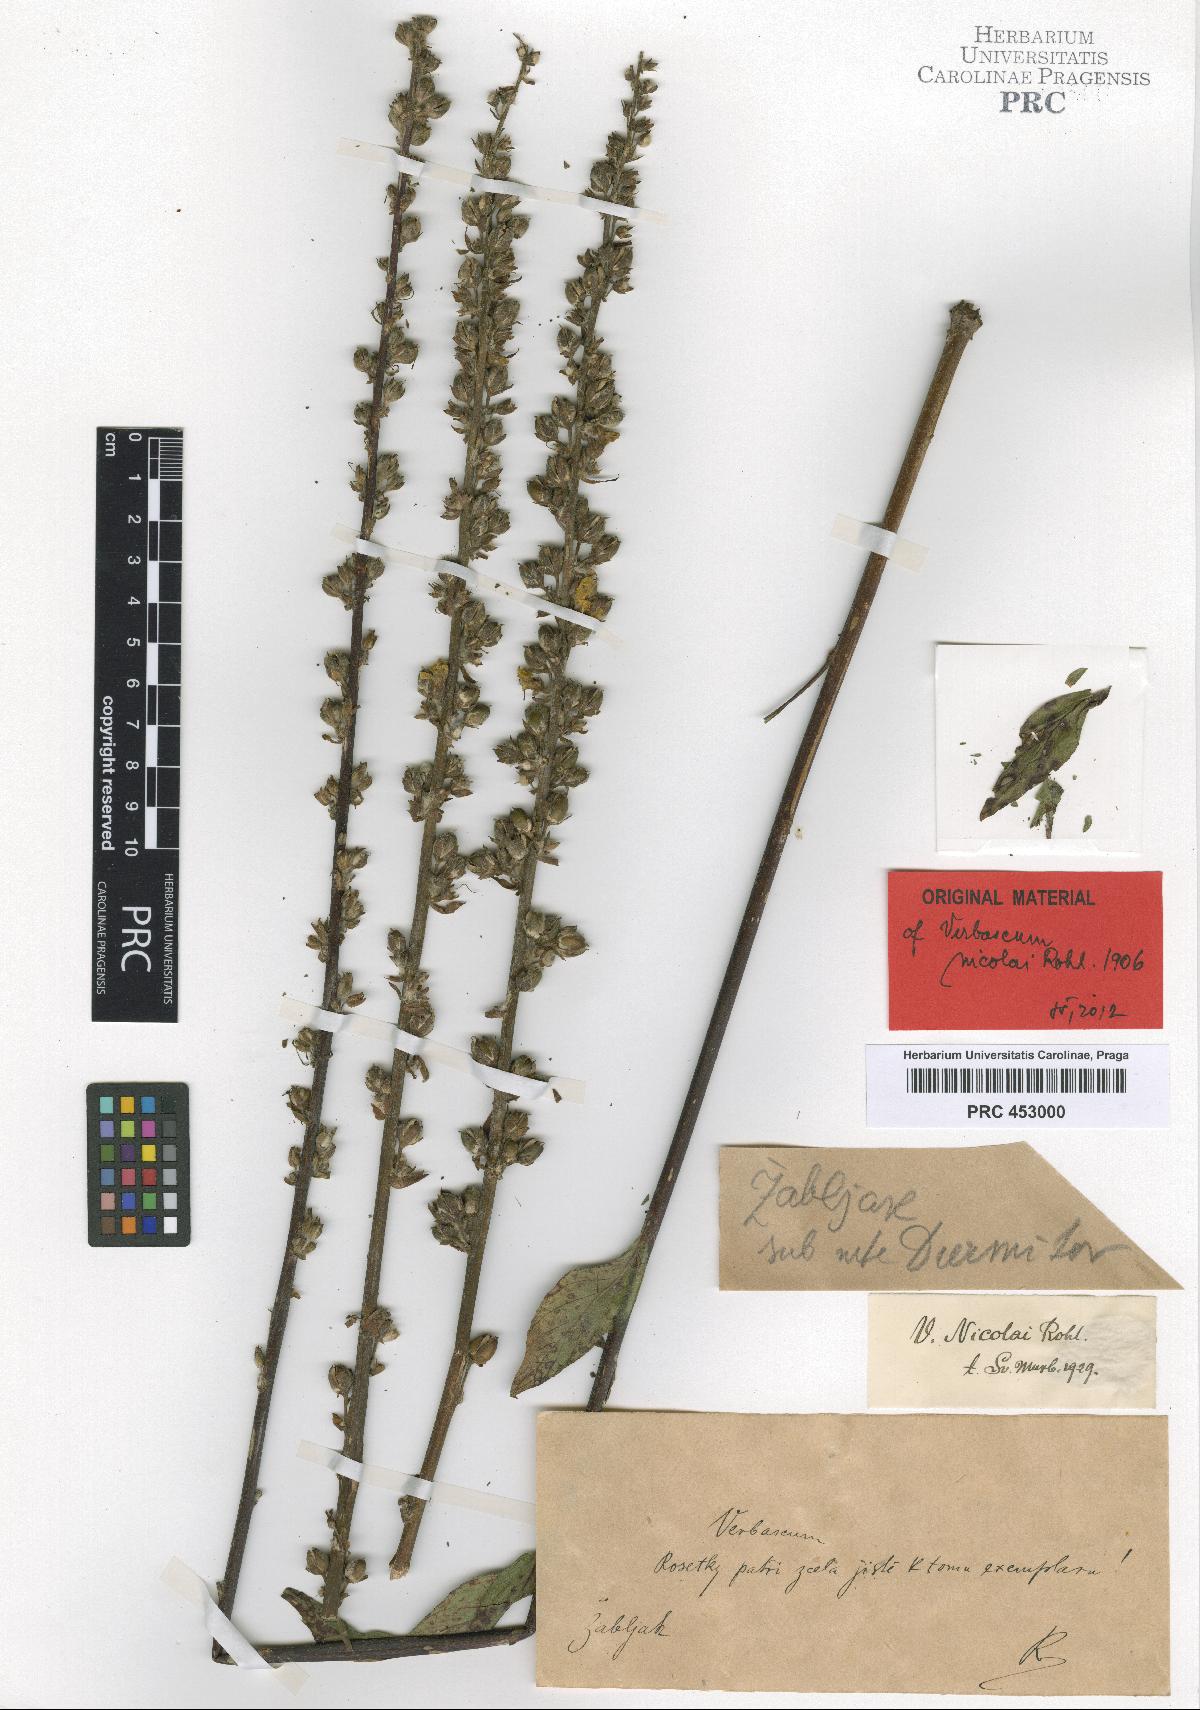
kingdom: Plantae
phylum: Tracheophyta
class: Magnoliopsida
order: Lamiales
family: Scrophulariaceae
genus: Verbascum
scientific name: Verbascum nicolai
